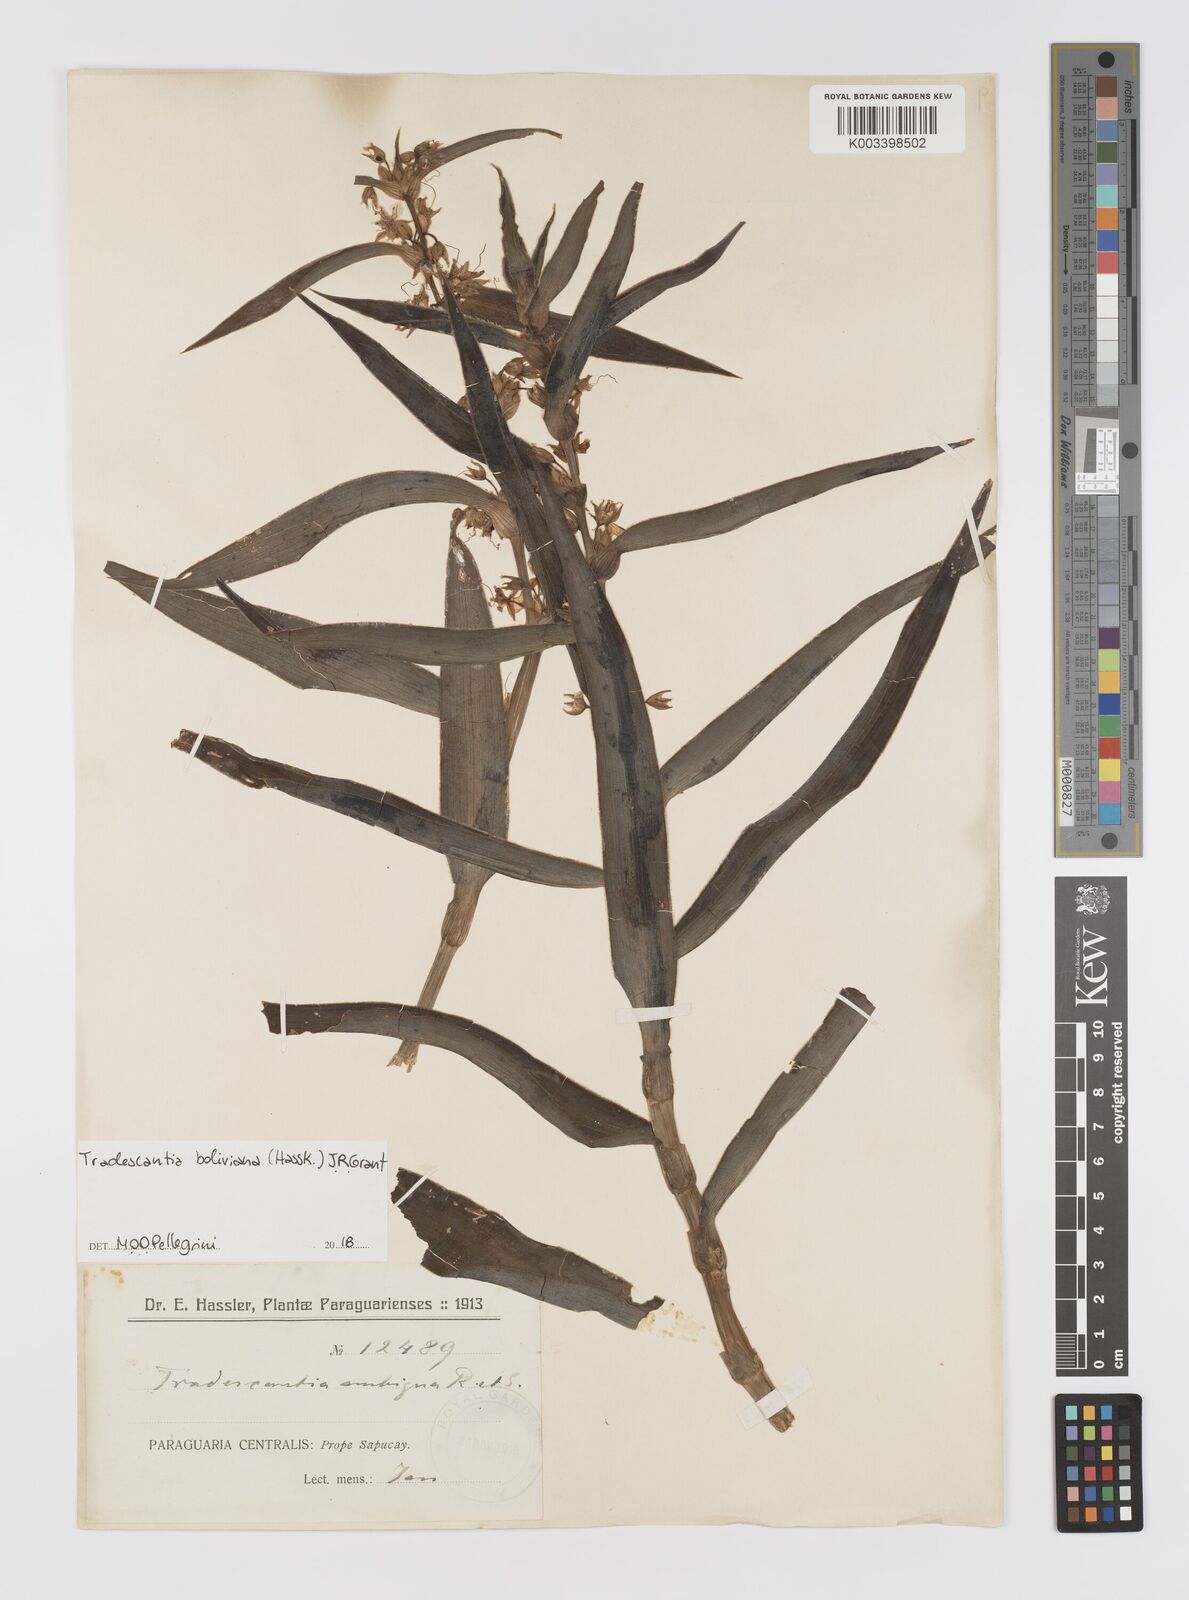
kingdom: Plantae
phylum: Tracheophyta
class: Liliopsida
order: Commelinales
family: Commelinaceae
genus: Tradescantia
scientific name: Tradescantia boliviana
